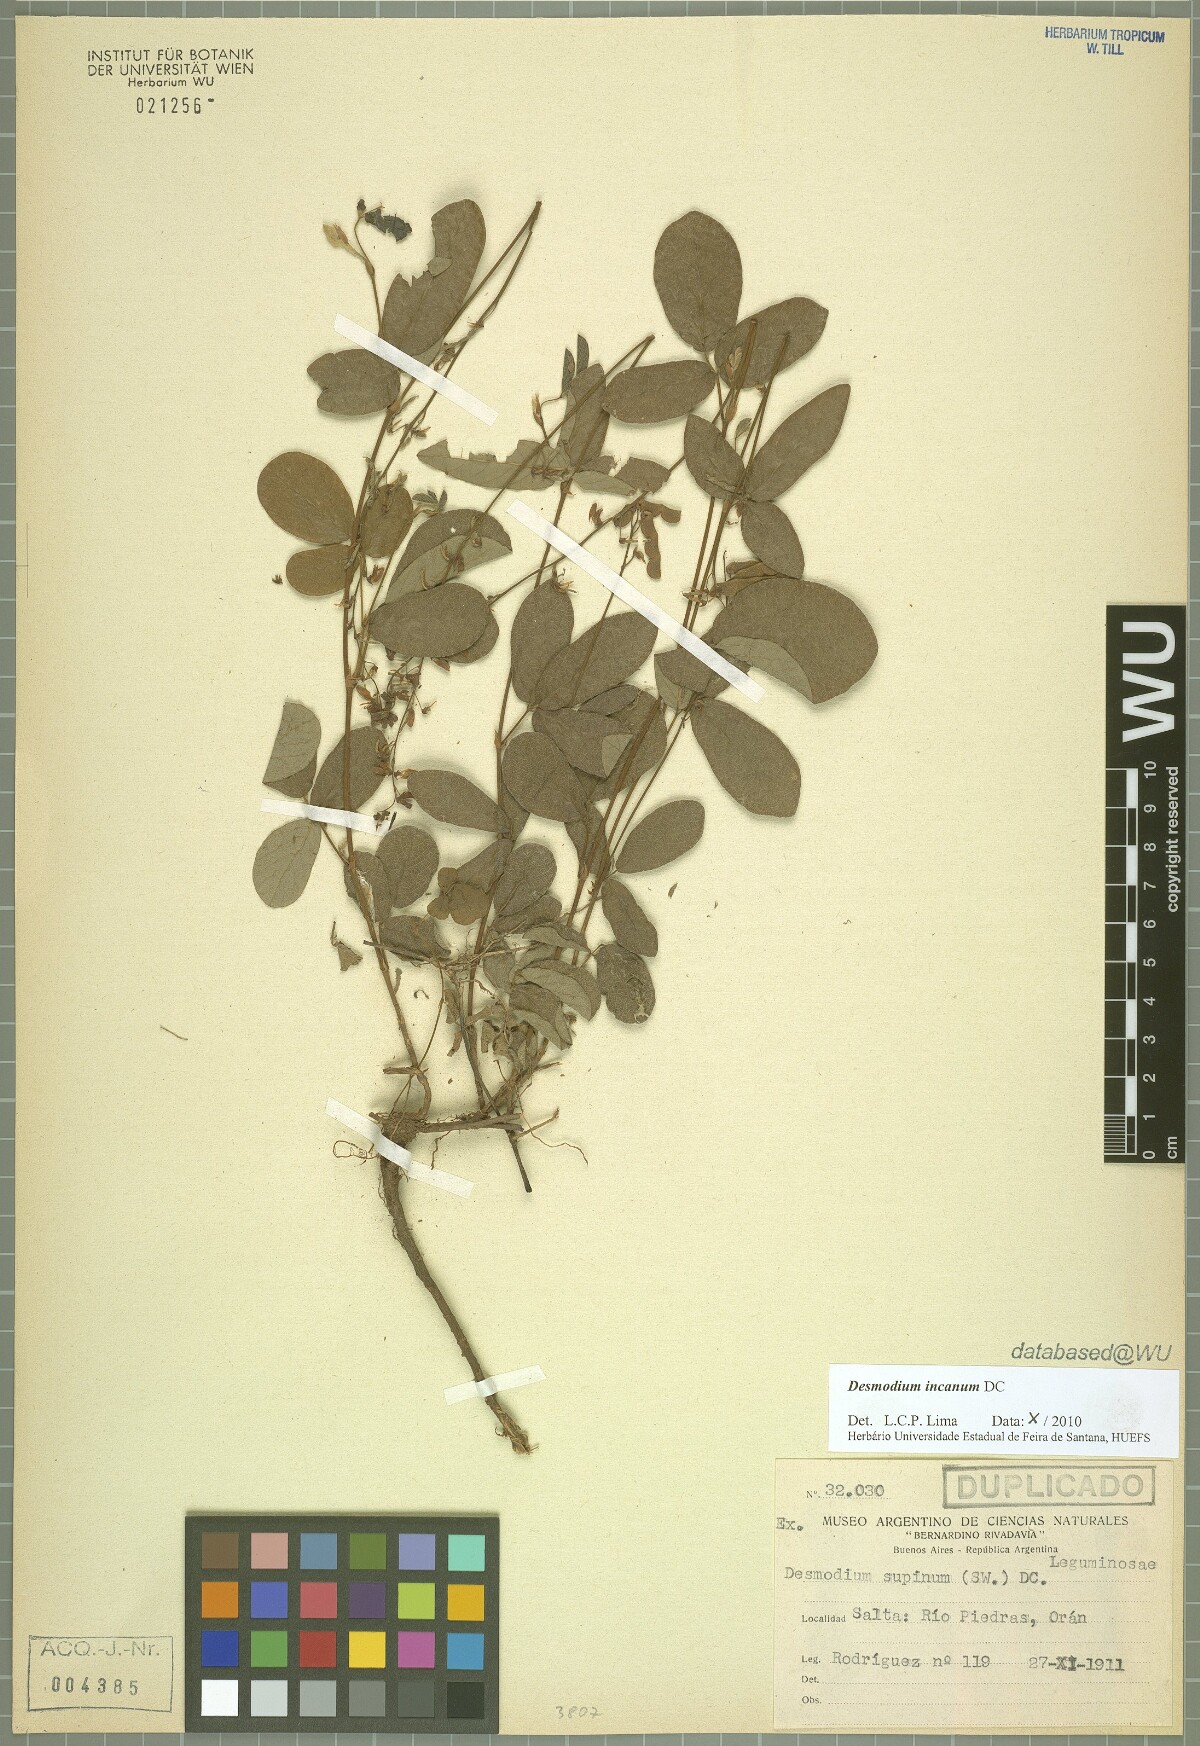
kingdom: Plantae
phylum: Tracheophyta
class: Magnoliopsida
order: Fabales
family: Fabaceae
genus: Desmodium
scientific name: Desmodium incanum
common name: Tickclover
